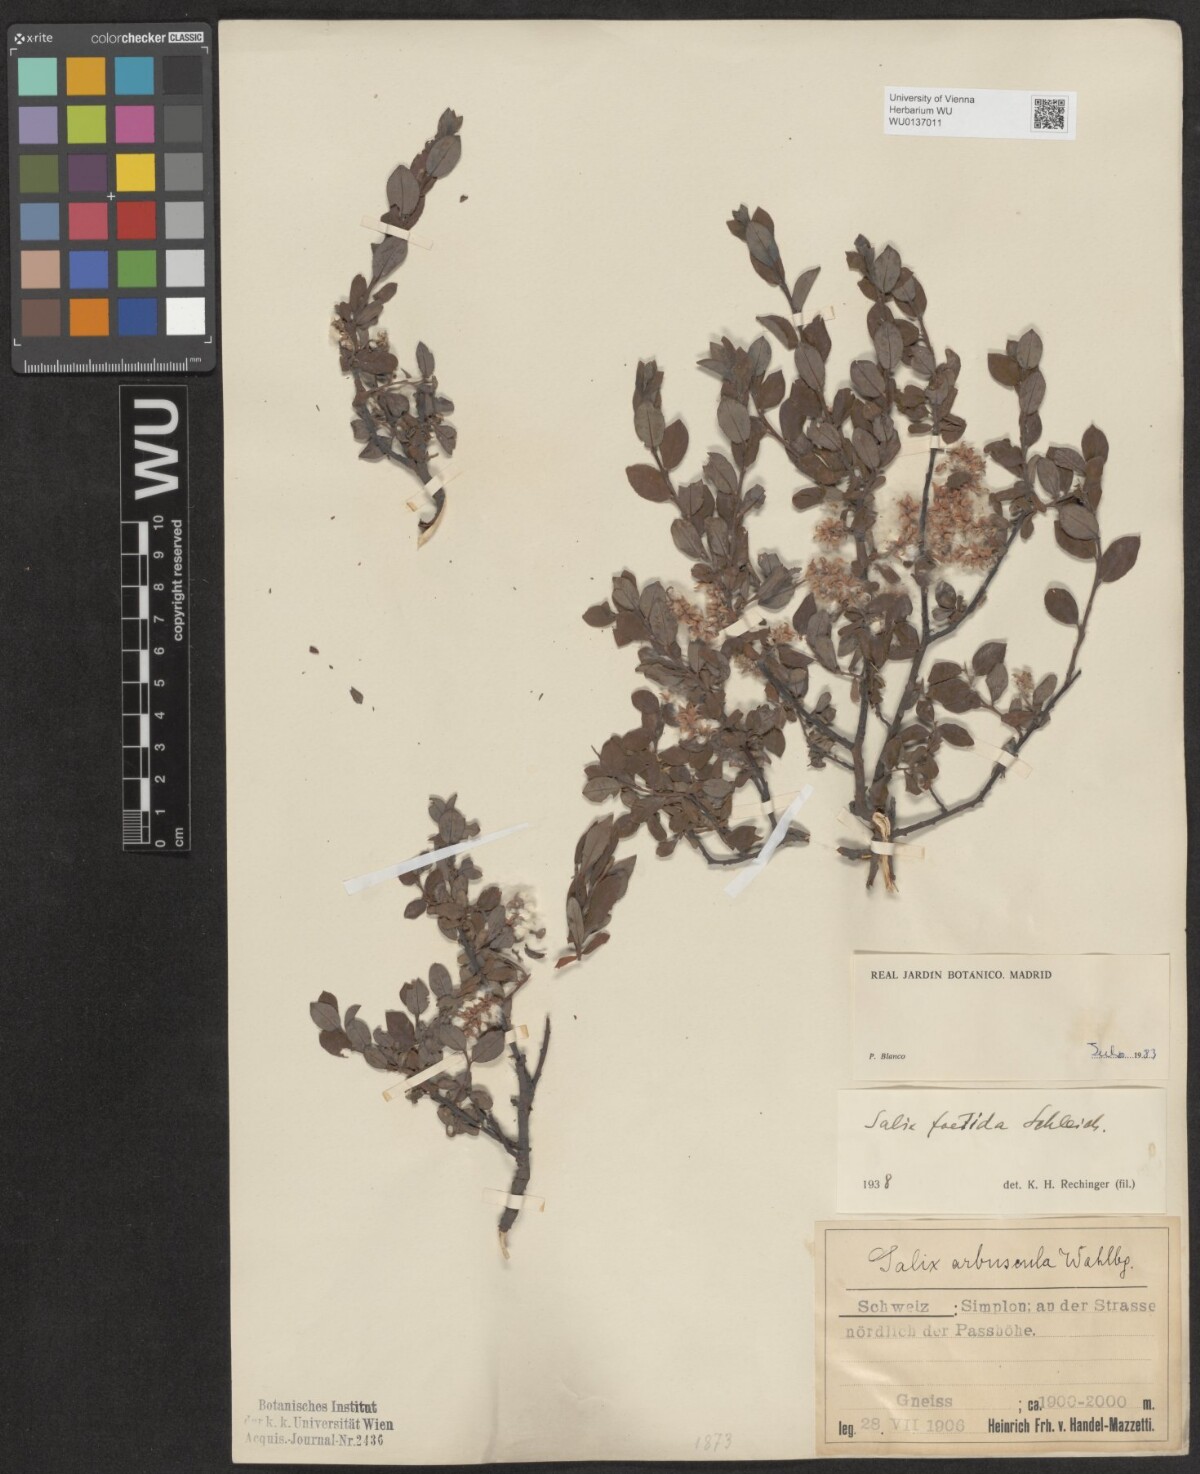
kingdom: Plantae
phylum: Tracheophyta
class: Magnoliopsida
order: Malpighiales
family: Salicaceae
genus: Salix
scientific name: Salix foetida
